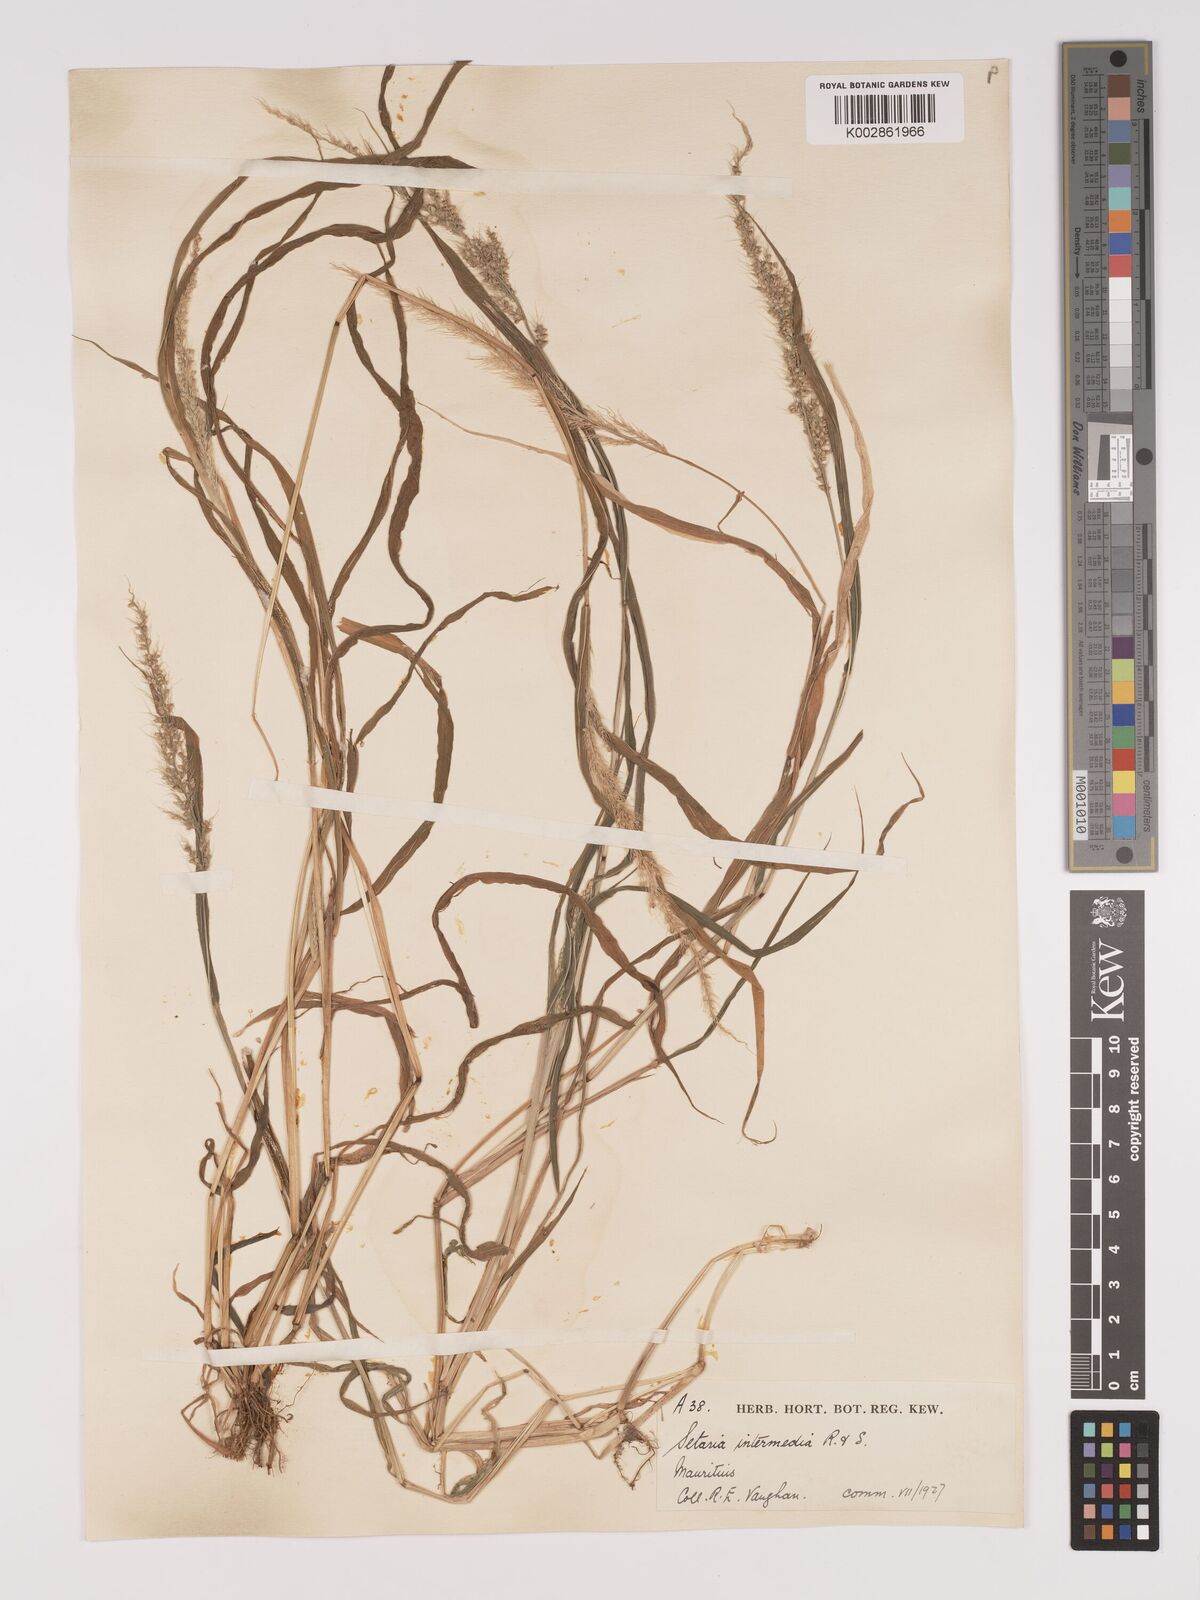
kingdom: Plantae
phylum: Tracheophyta
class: Liliopsida
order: Poales
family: Poaceae
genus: Setaria
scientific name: Setaria intermedia
